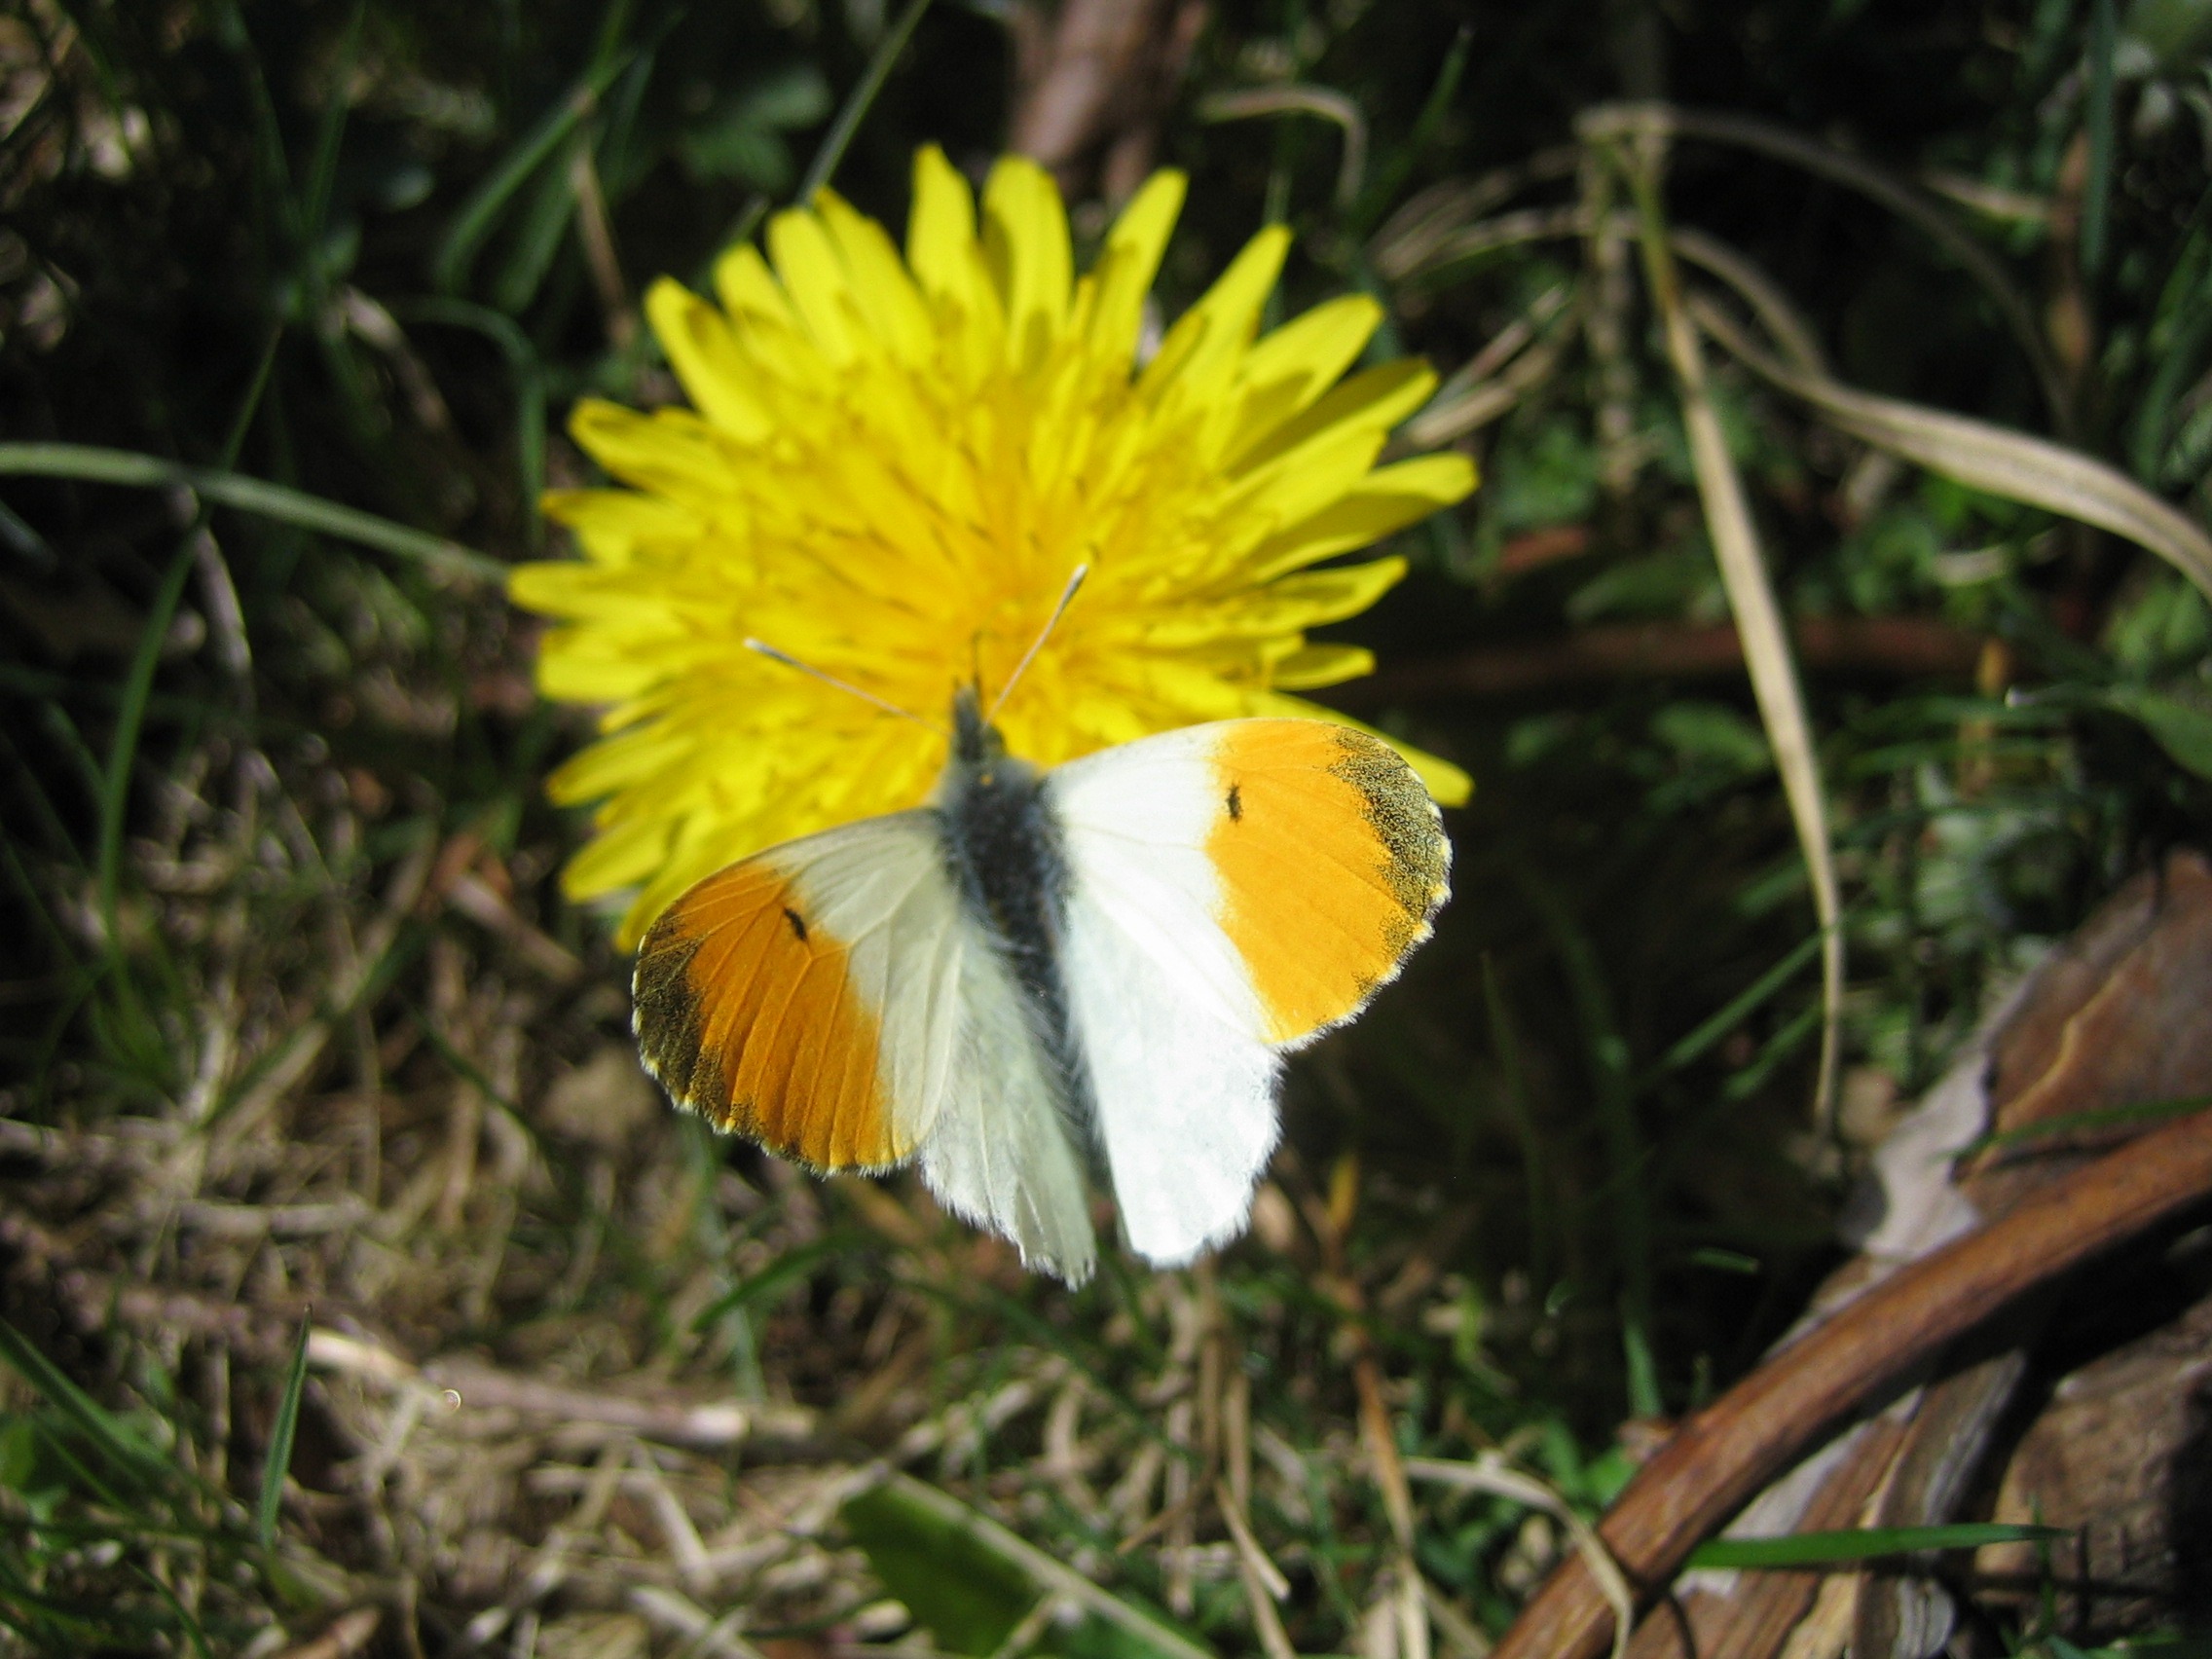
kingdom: Animalia
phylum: Arthropoda
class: Insecta
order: Lepidoptera
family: Pieridae
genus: Anthocharis
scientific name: Anthocharis cardamines
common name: Aurora
